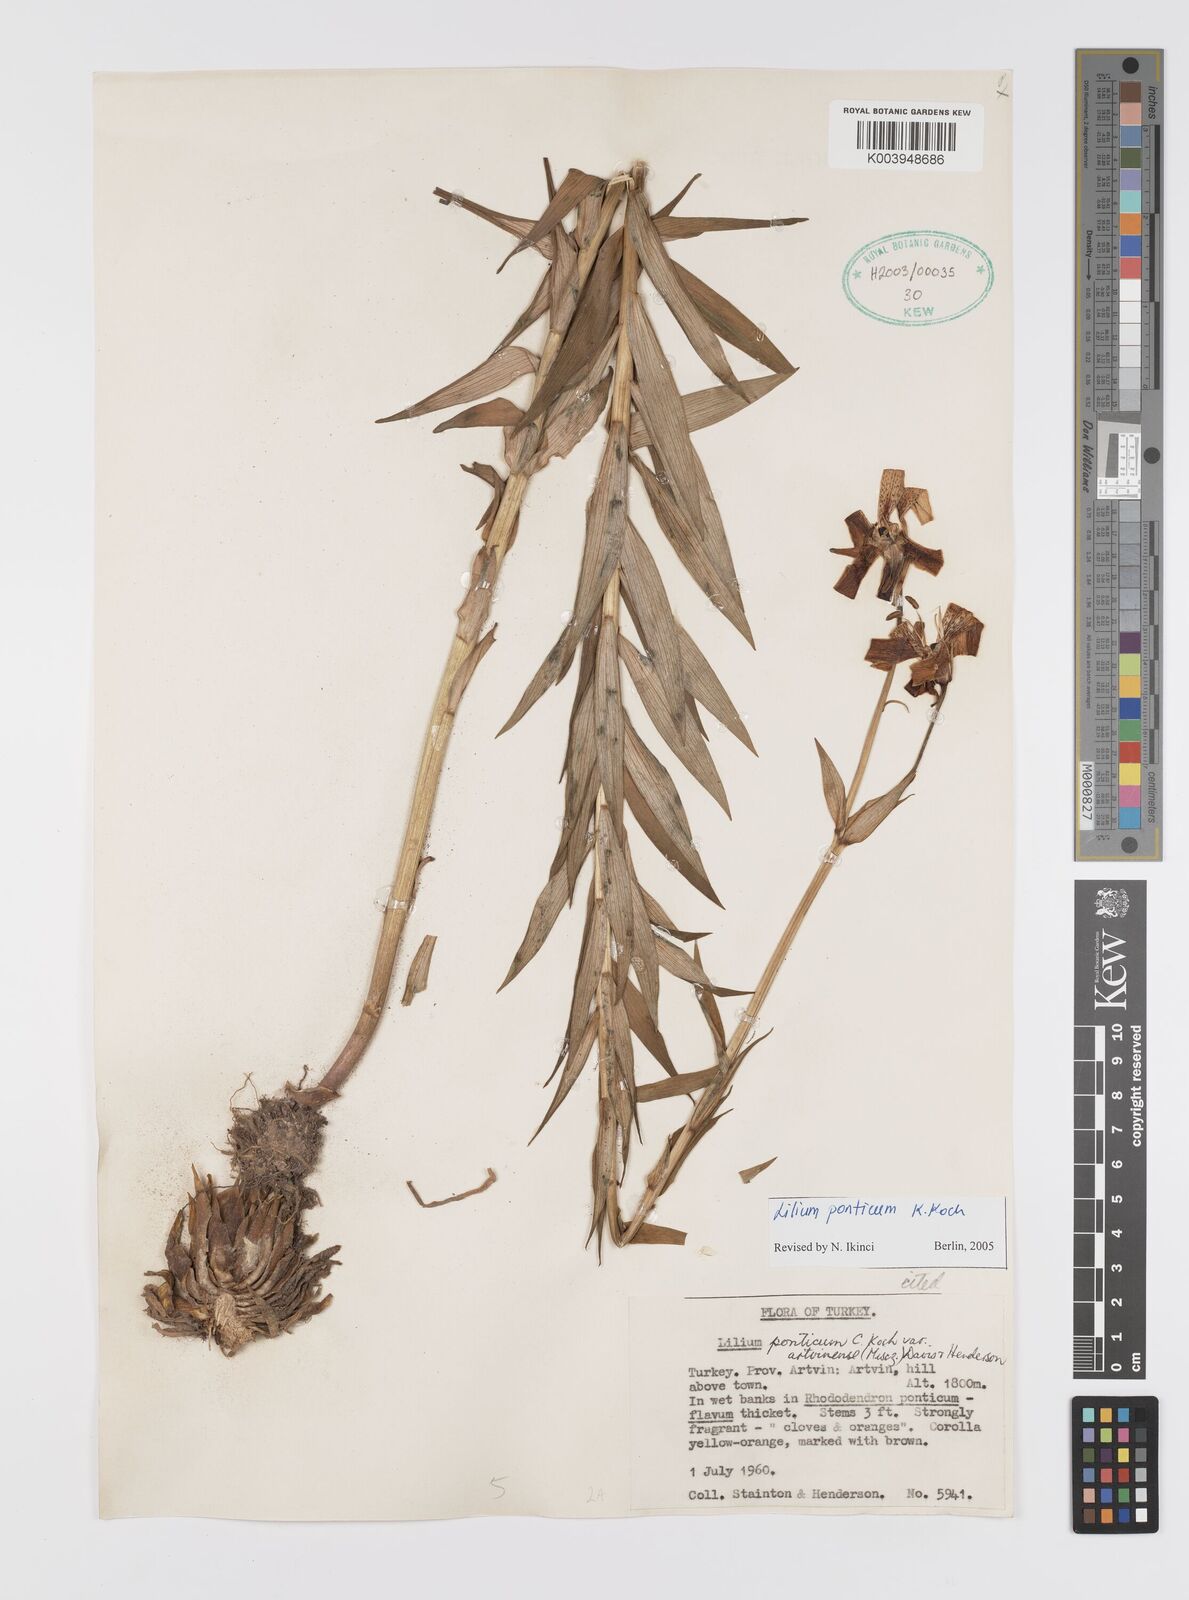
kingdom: Plantae
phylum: Tracheophyta
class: Liliopsida
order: Liliales
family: Liliaceae
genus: Lilium
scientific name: Lilium ponticum
